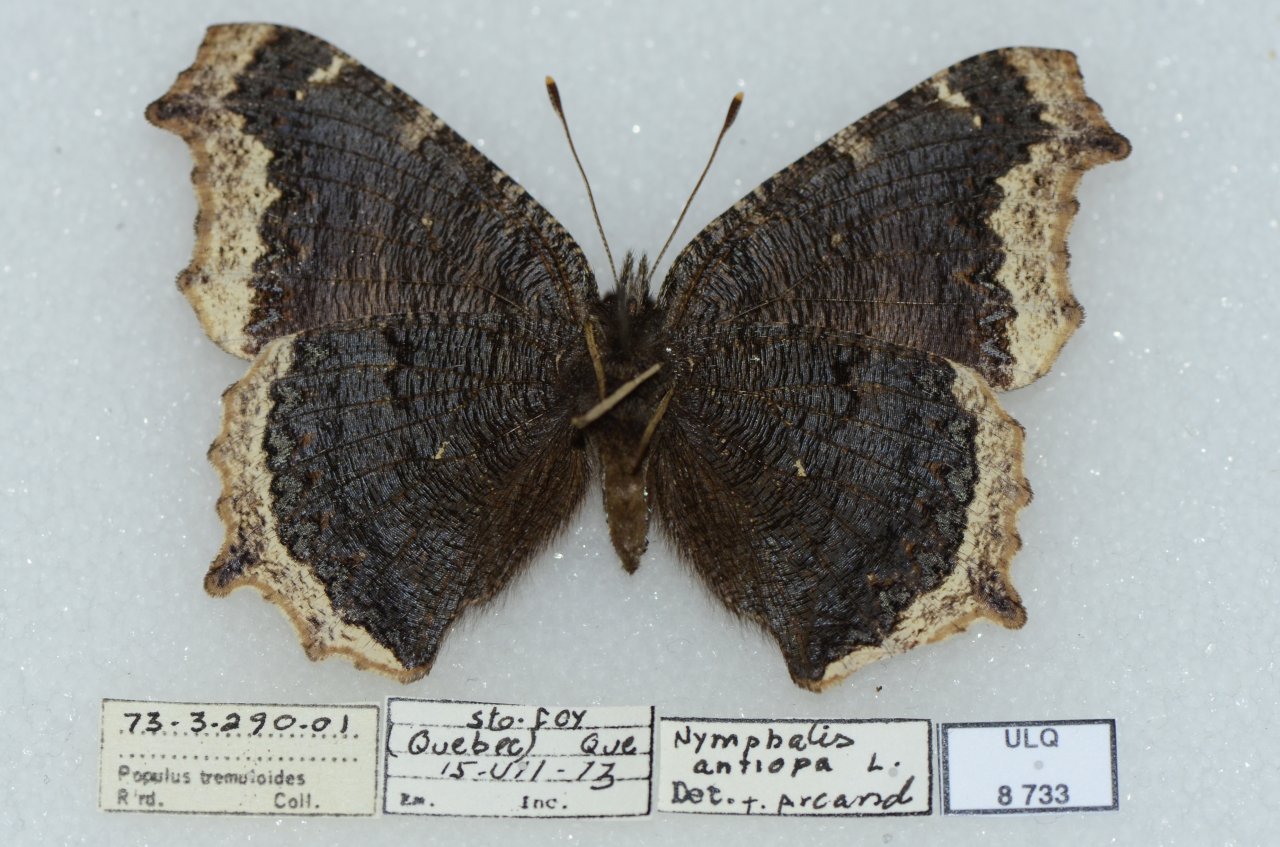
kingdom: Animalia
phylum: Arthropoda
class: Insecta
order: Lepidoptera
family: Nymphalidae
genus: Nymphalis
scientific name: Nymphalis antiopa
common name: Mourning Cloak
